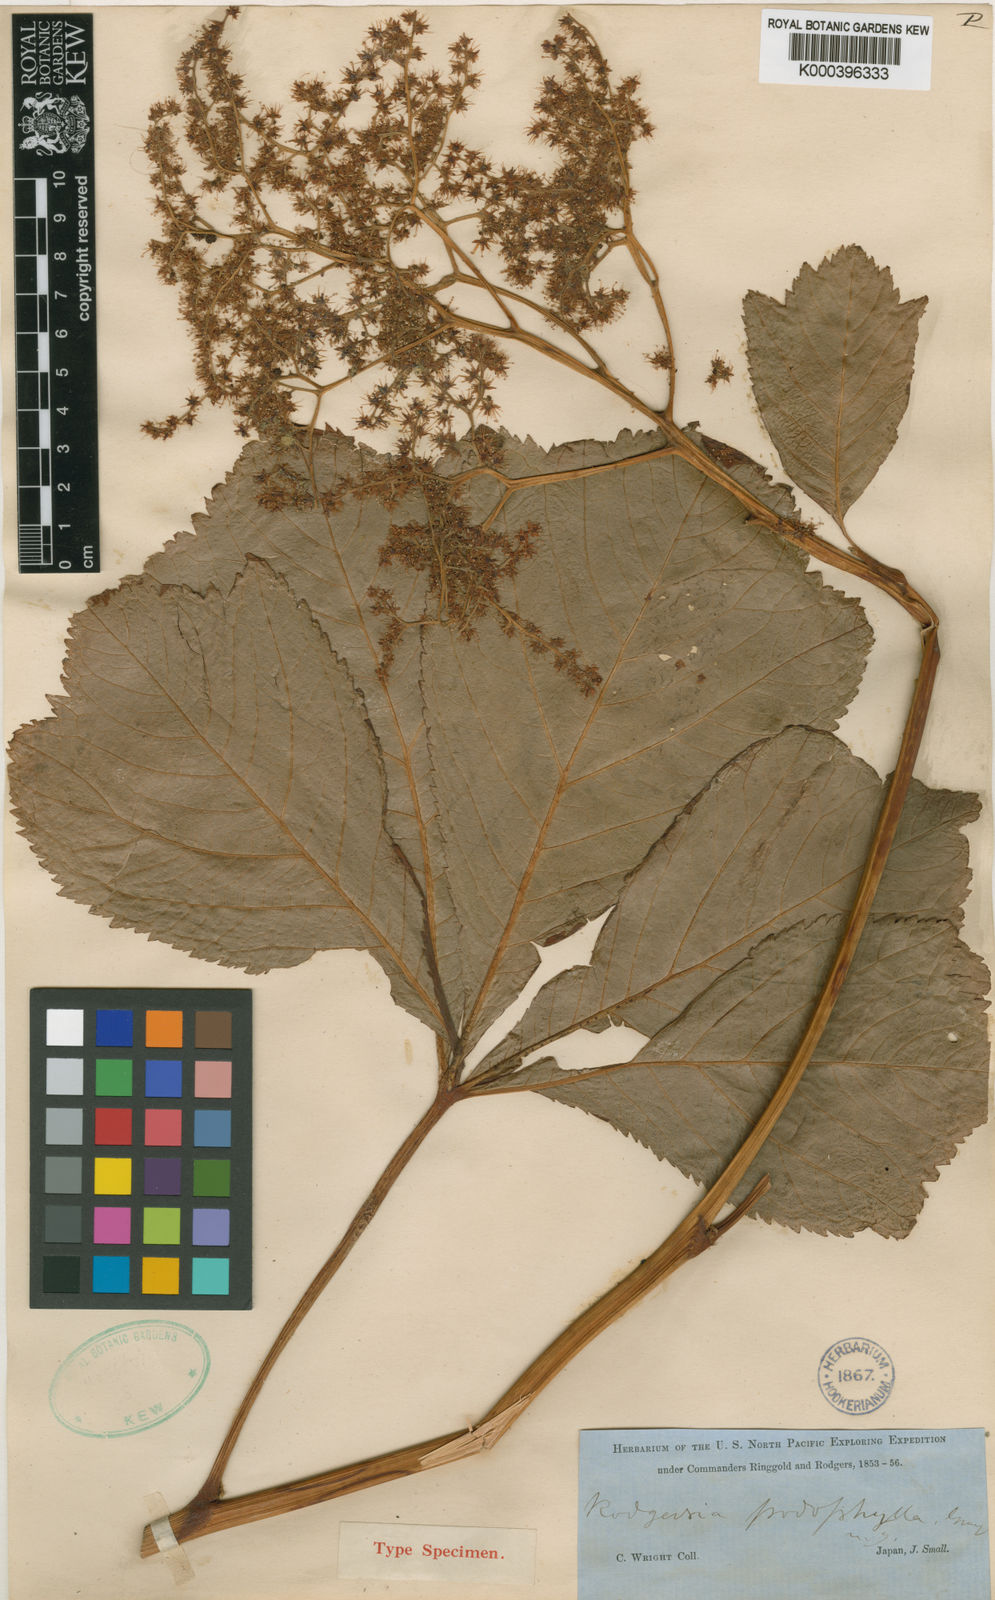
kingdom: Plantae
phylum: Tracheophyta
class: Magnoliopsida
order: Saxifragales
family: Saxifragaceae
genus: Rodgersia
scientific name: Rodgersia podophylla
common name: Rodgersia
